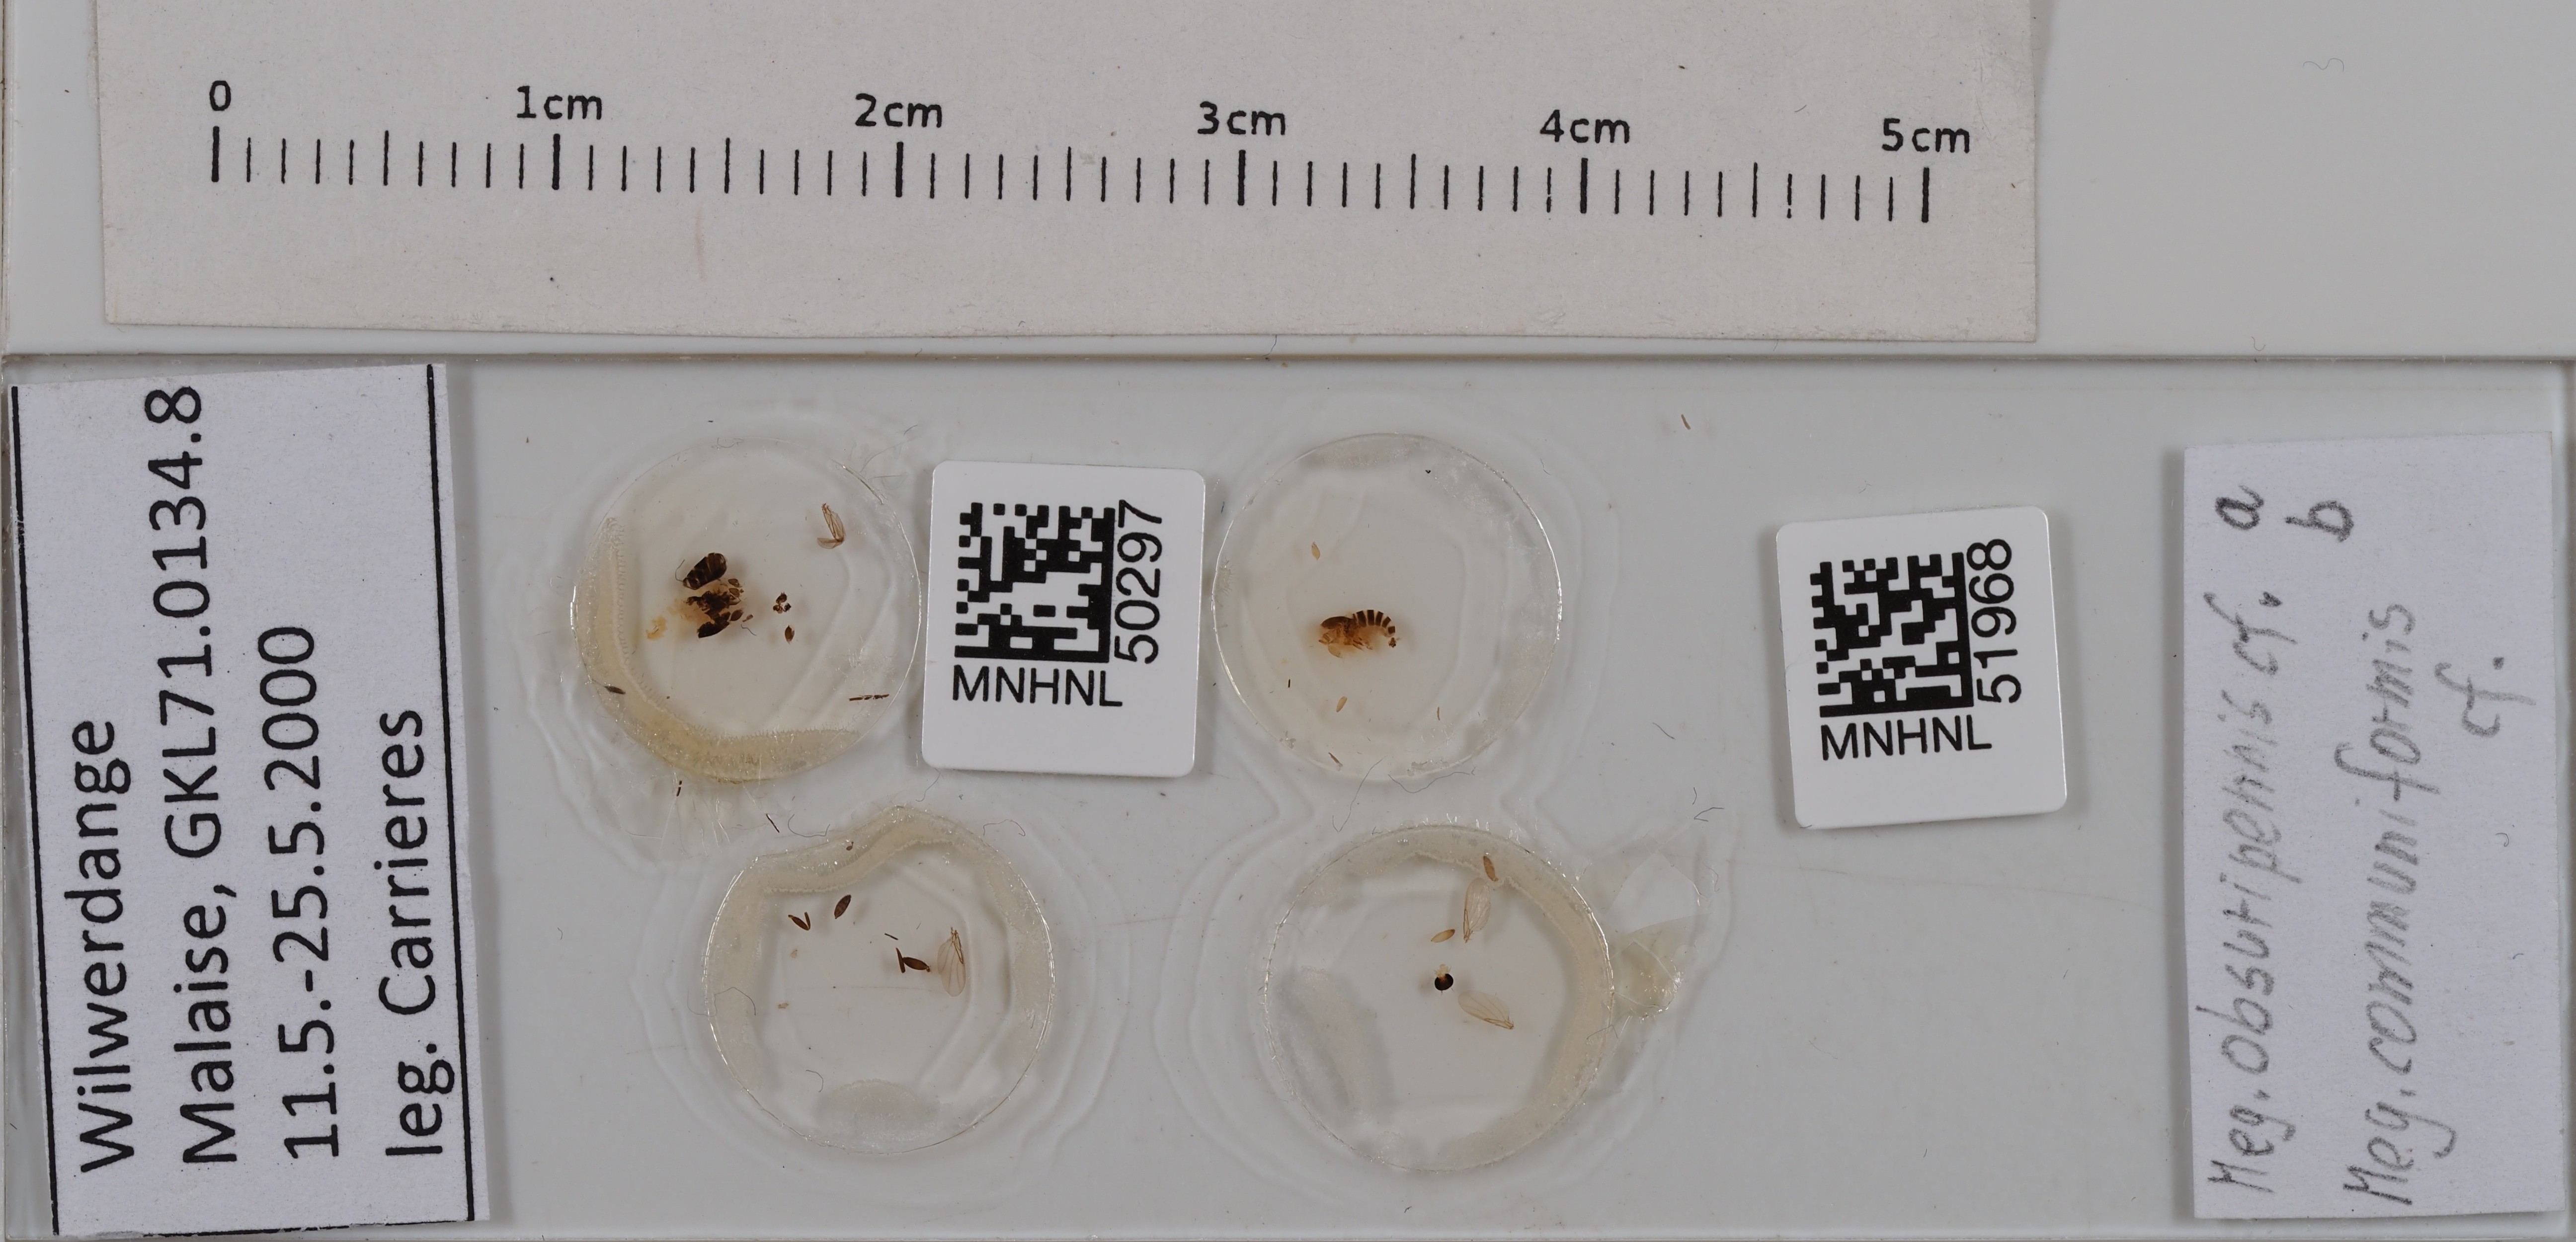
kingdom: Animalia
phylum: Arthropoda
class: Insecta
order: Diptera
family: Phoridae
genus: Megaselia
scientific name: Megaselia obscuripennis
